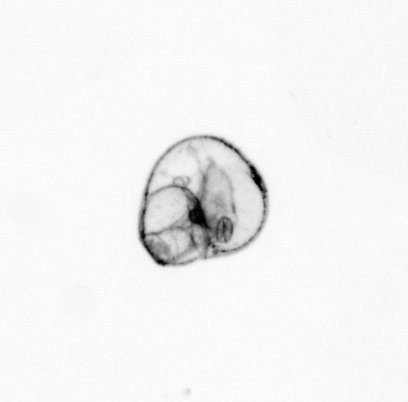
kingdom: Animalia
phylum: Arthropoda
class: Copepoda
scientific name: Copepoda
